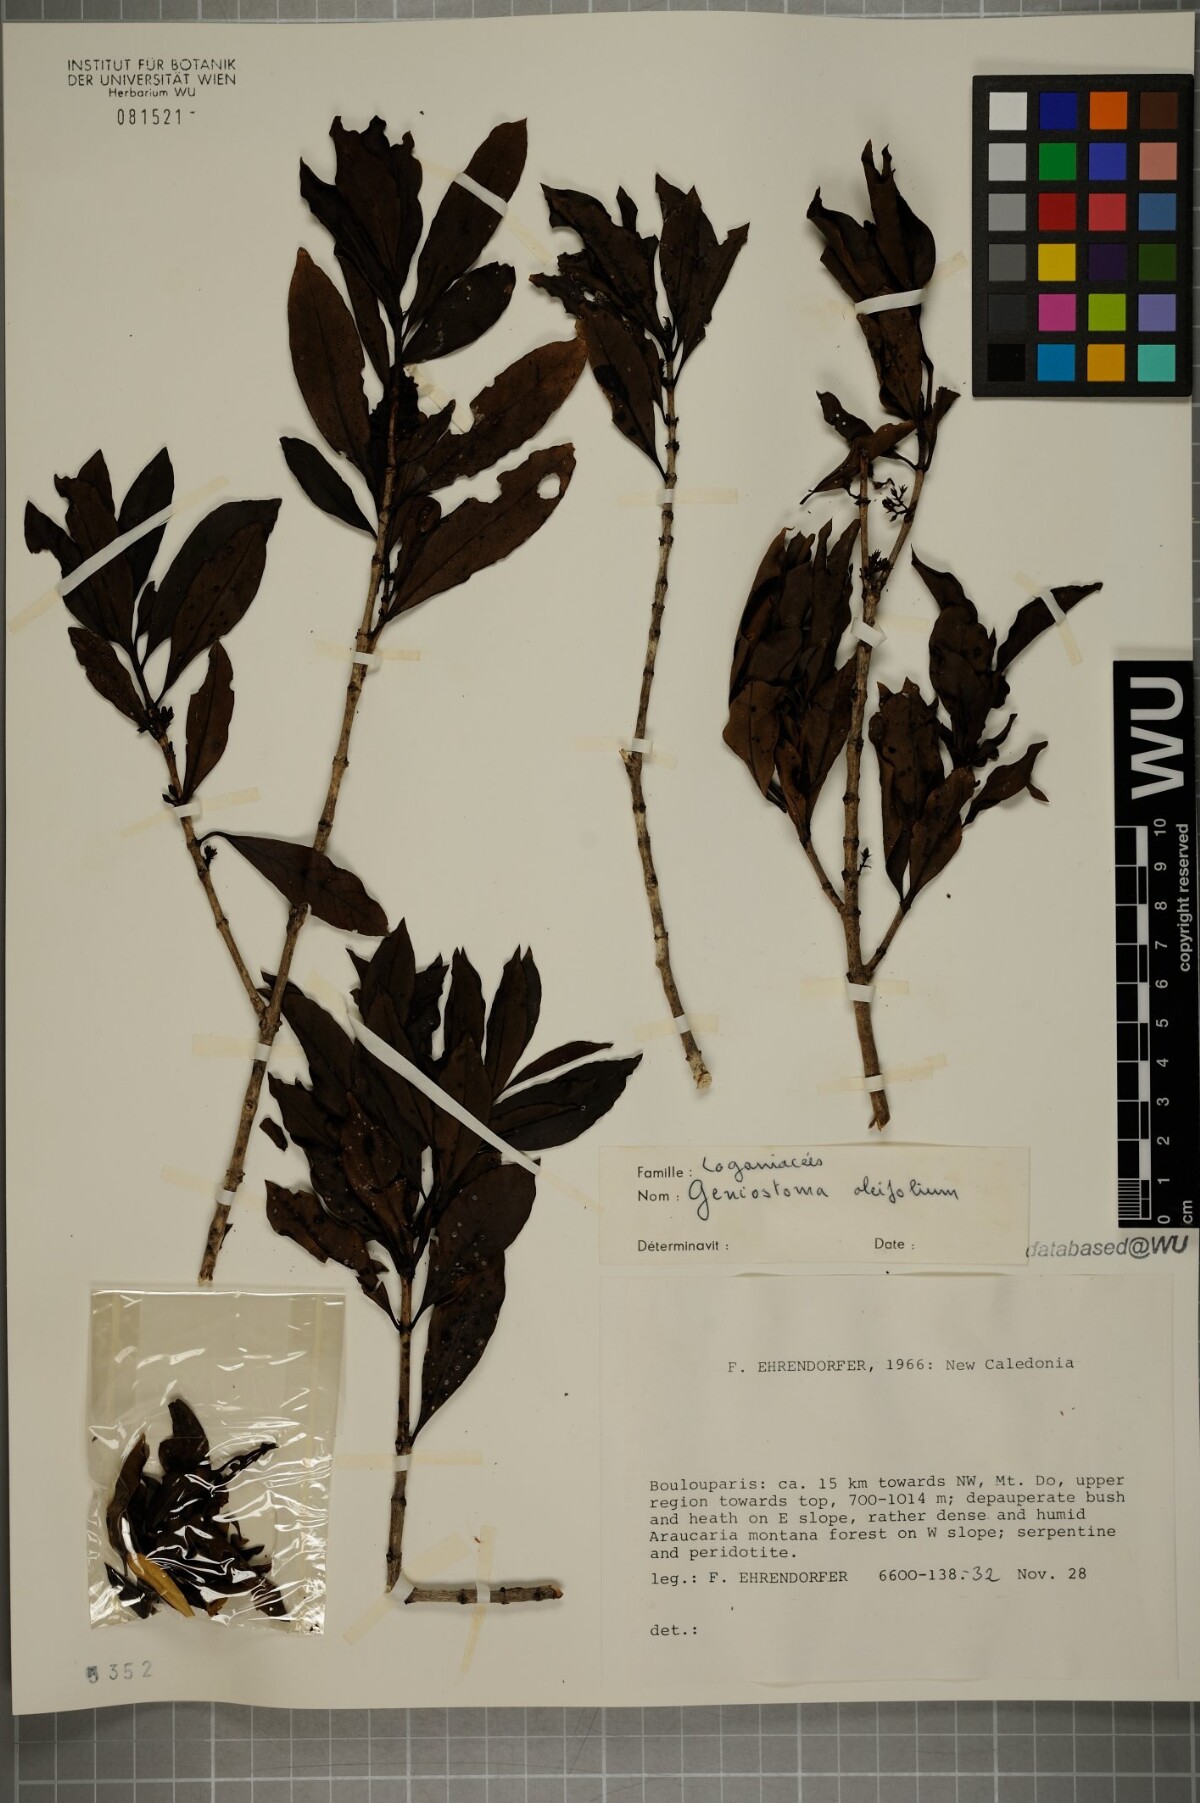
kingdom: Plantae
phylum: Tracheophyta
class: Magnoliopsida
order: Gentianales
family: Loganiaceae
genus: Geniostoma
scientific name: Geniostoma densiflorum
